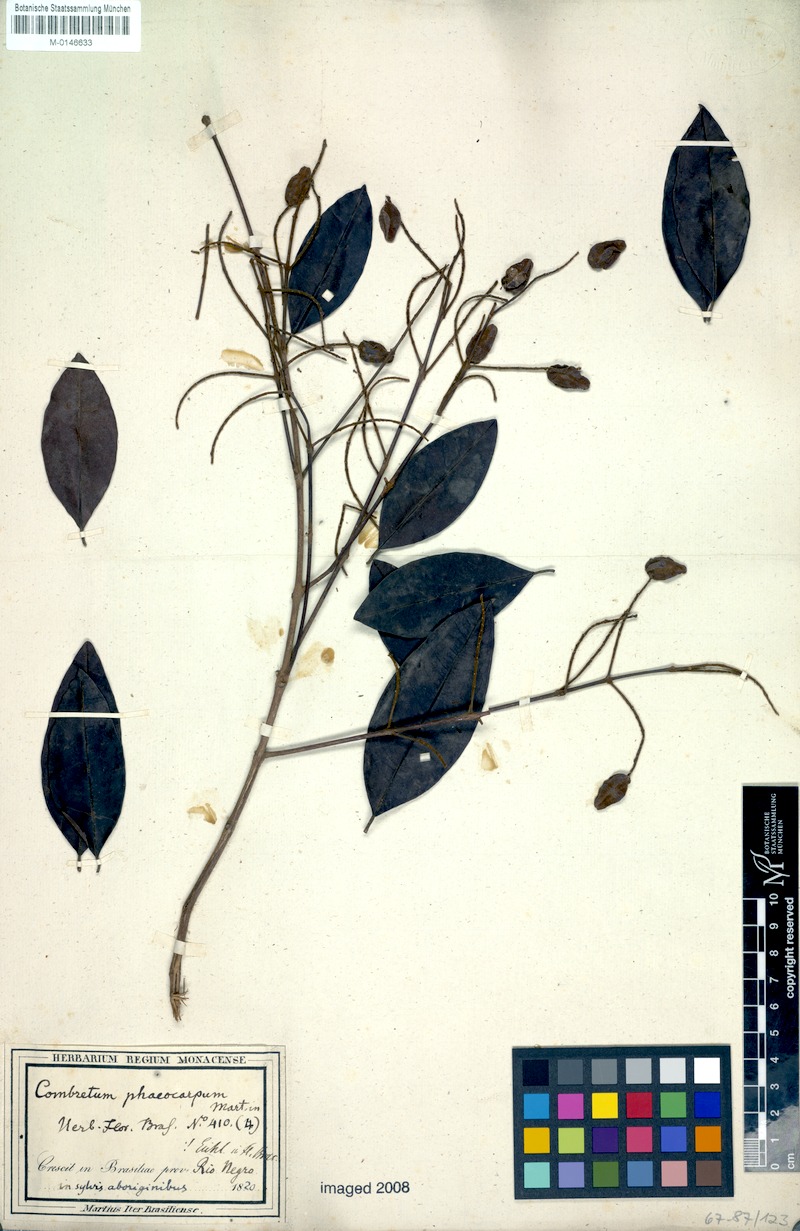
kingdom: Plantae
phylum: Tracheophyta
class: Magnoliopsida
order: Myrtales
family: Combretaceae
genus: Combretum
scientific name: Combretum pyramidatum
